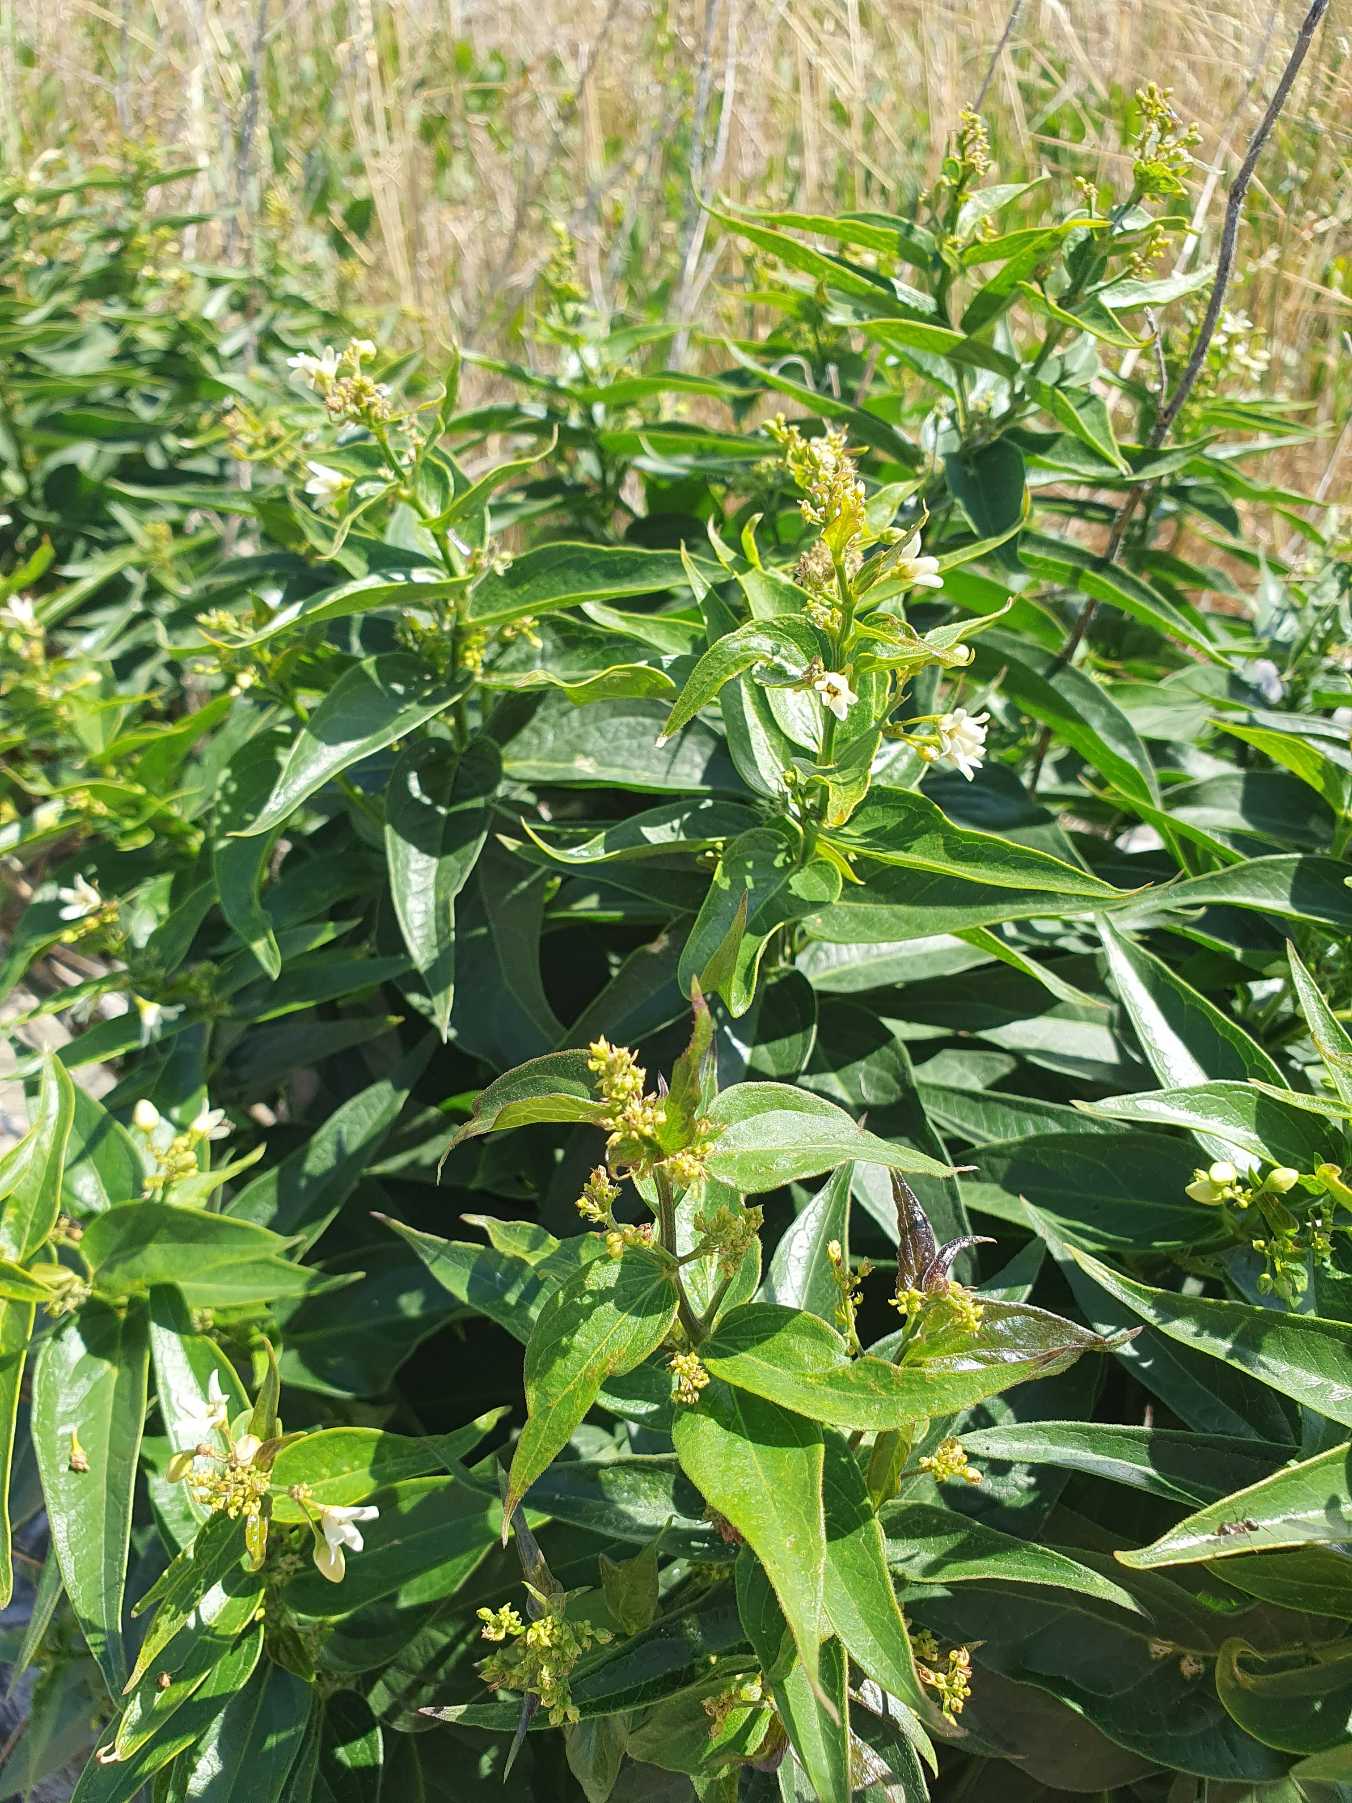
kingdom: Plantae
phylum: Tracheophyta
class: Magnoliopsida
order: Gentianales
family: Apocynaceae
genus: Vincetoxicum
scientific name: Vincetoxicum hirundinaria
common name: Svalerod
